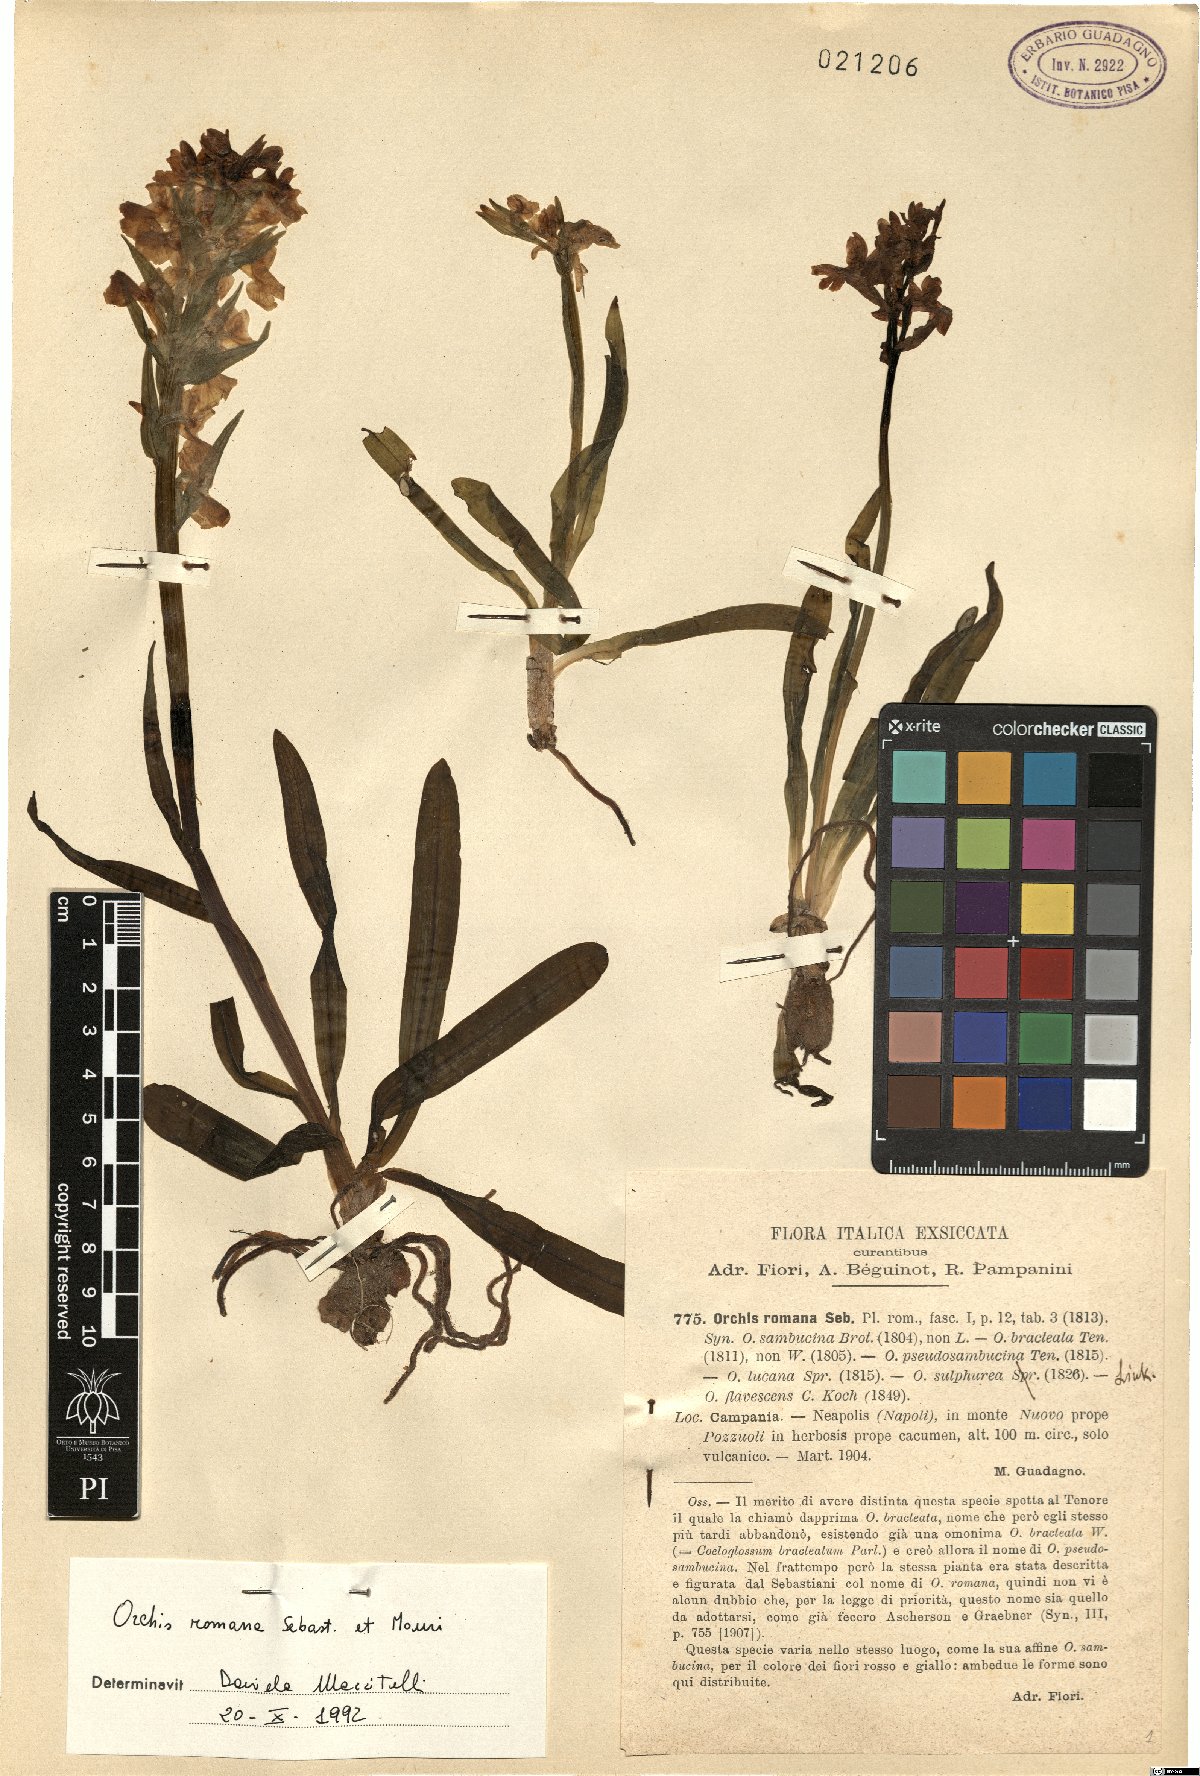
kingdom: Plantae
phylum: Tracheophyta
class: Liliopsida
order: Asparagales
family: Orchidaceae
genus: Dactylorhiza
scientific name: Dactylorhiza romana
